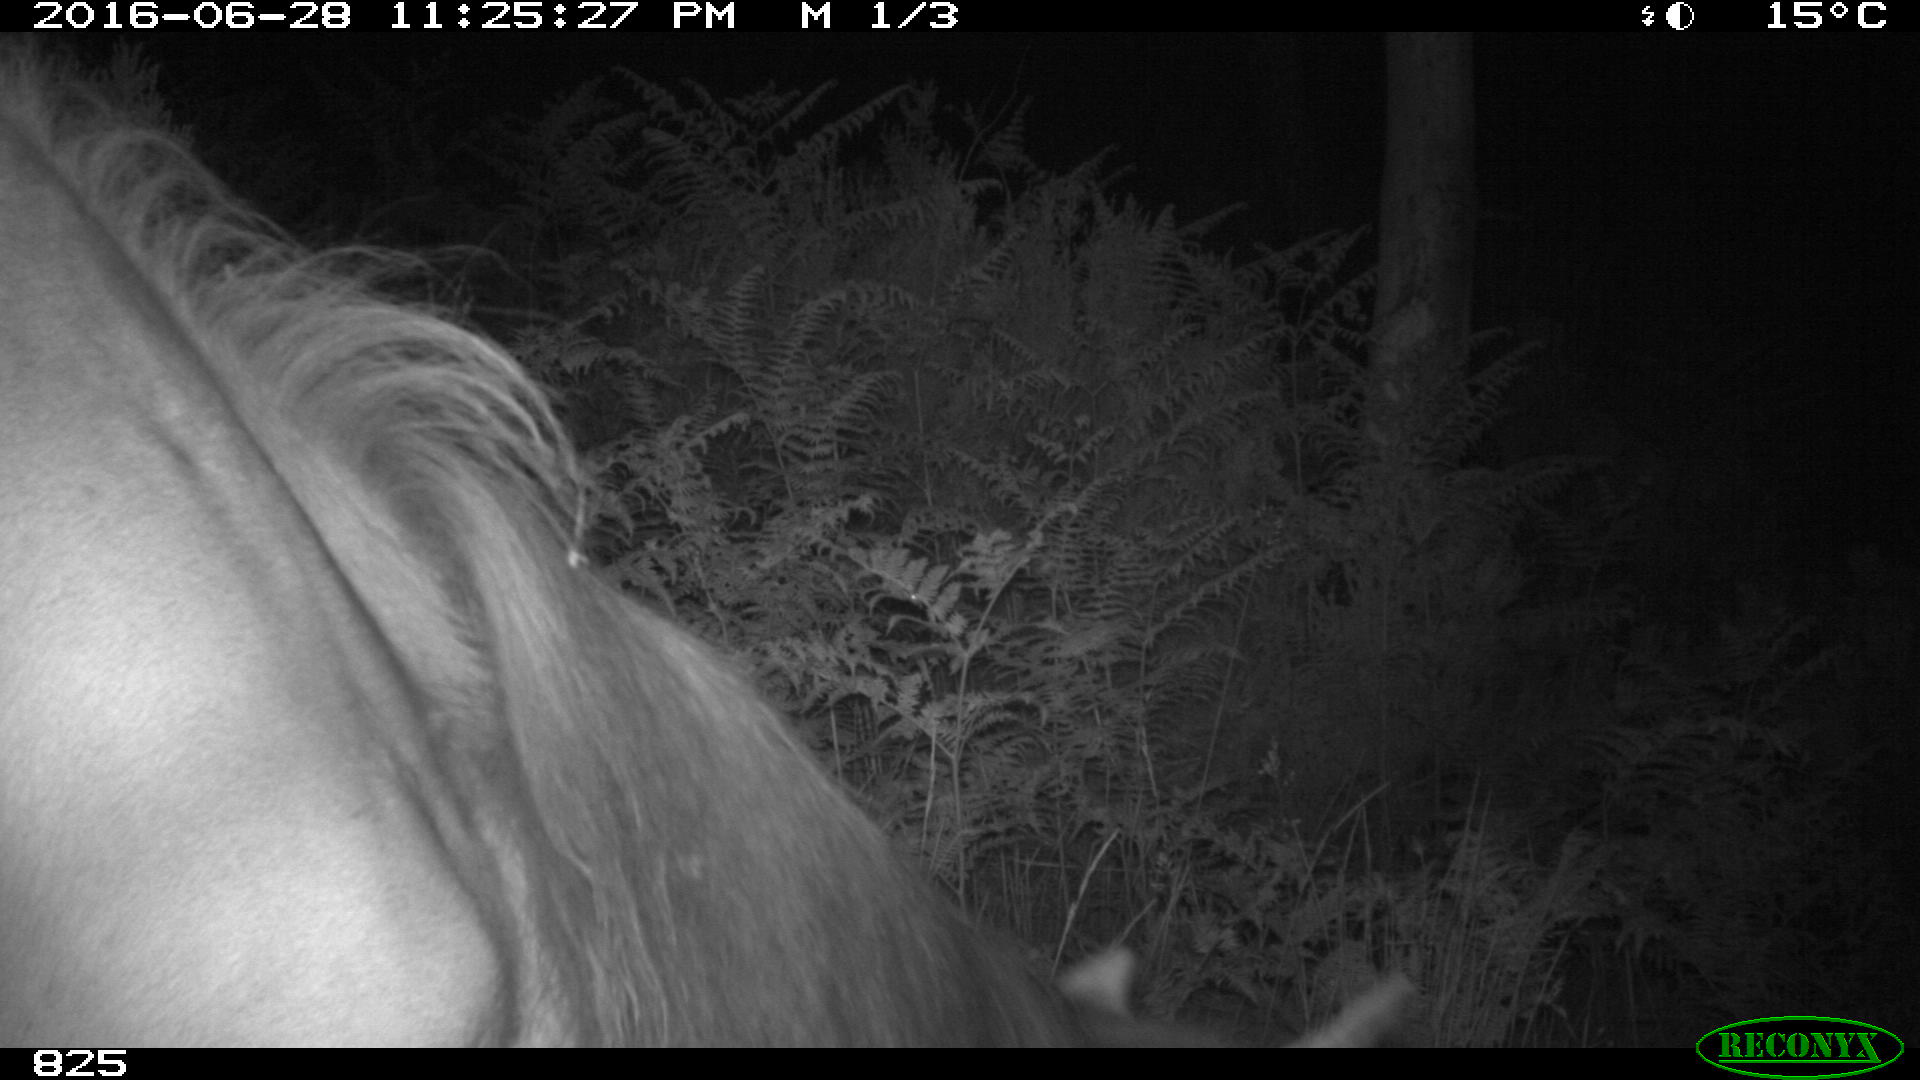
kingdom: Animalia
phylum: Chordata
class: Mammalia
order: Perissodactyla
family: Equidae
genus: Equus
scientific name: Equus caballus
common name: Horse
